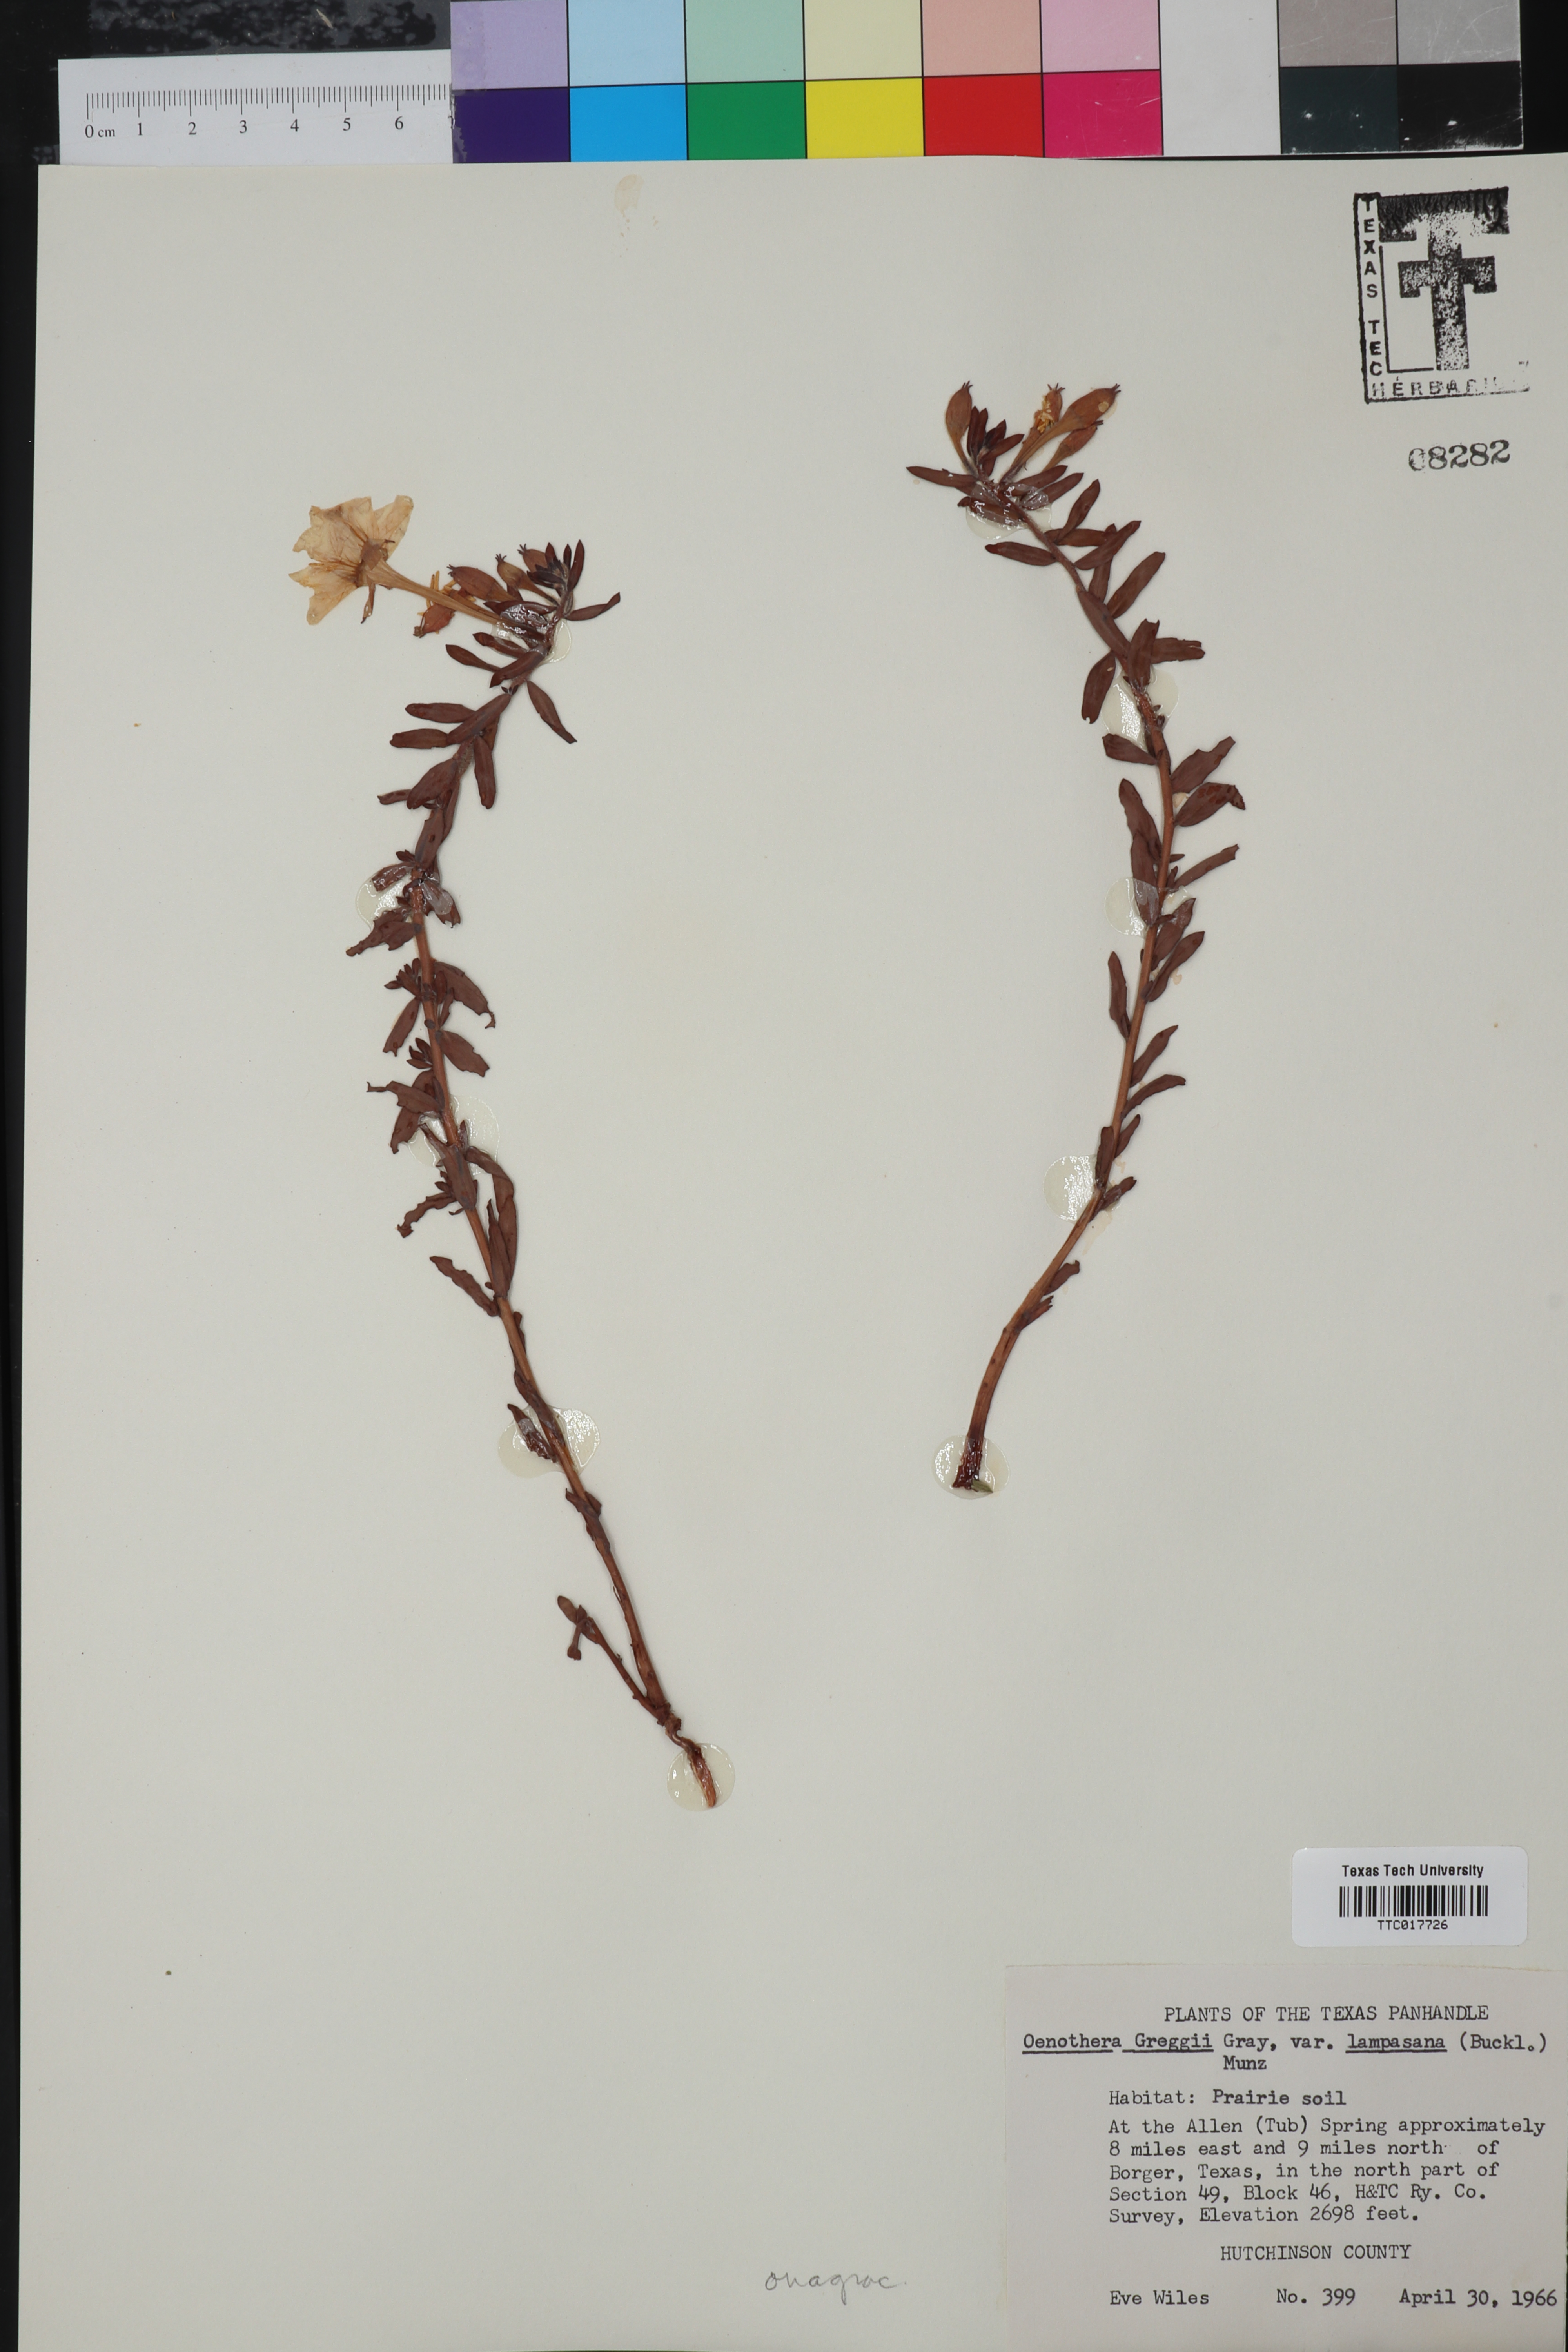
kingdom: Plantae
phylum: Tracheophyta
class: Magnoliopsida
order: Myrtales
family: Onagraceae
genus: Oenothera
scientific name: Oenothera hartwegii
